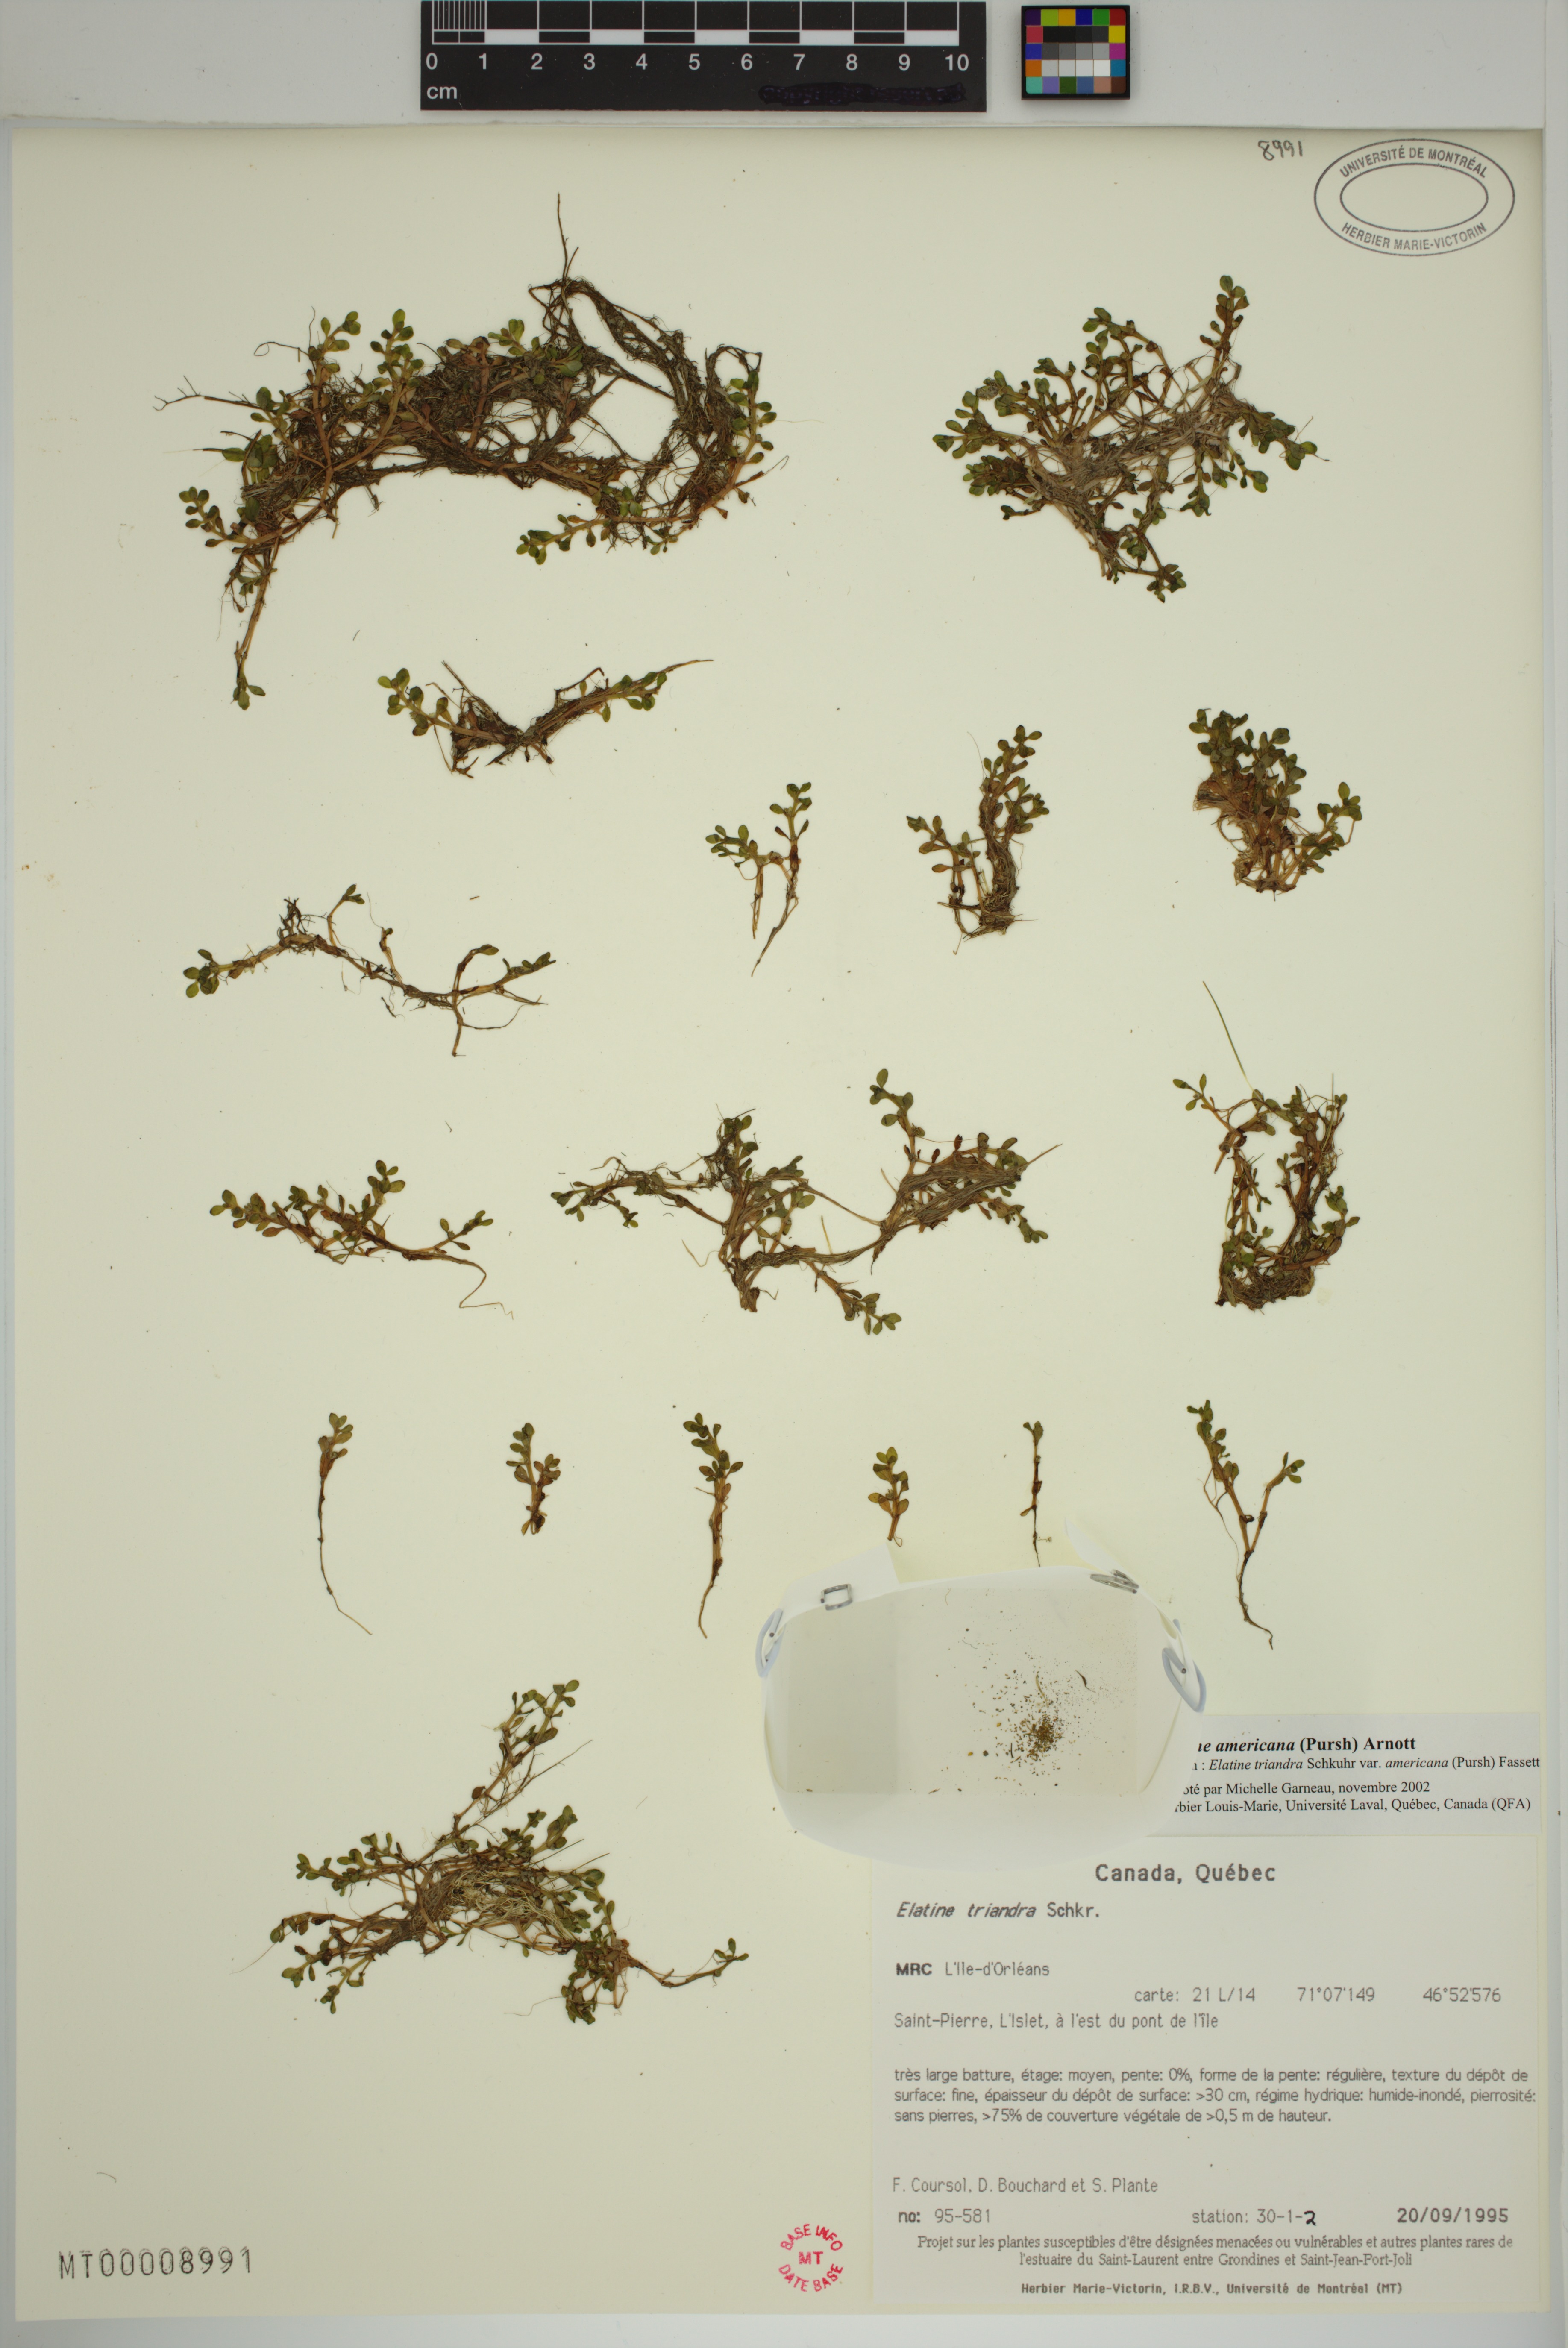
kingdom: Plantae
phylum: Tracheophyta
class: Magnoliopsida
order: Malpighiales
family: Elatinaceae
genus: Elatine
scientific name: Elatine americana
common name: American waterwort
